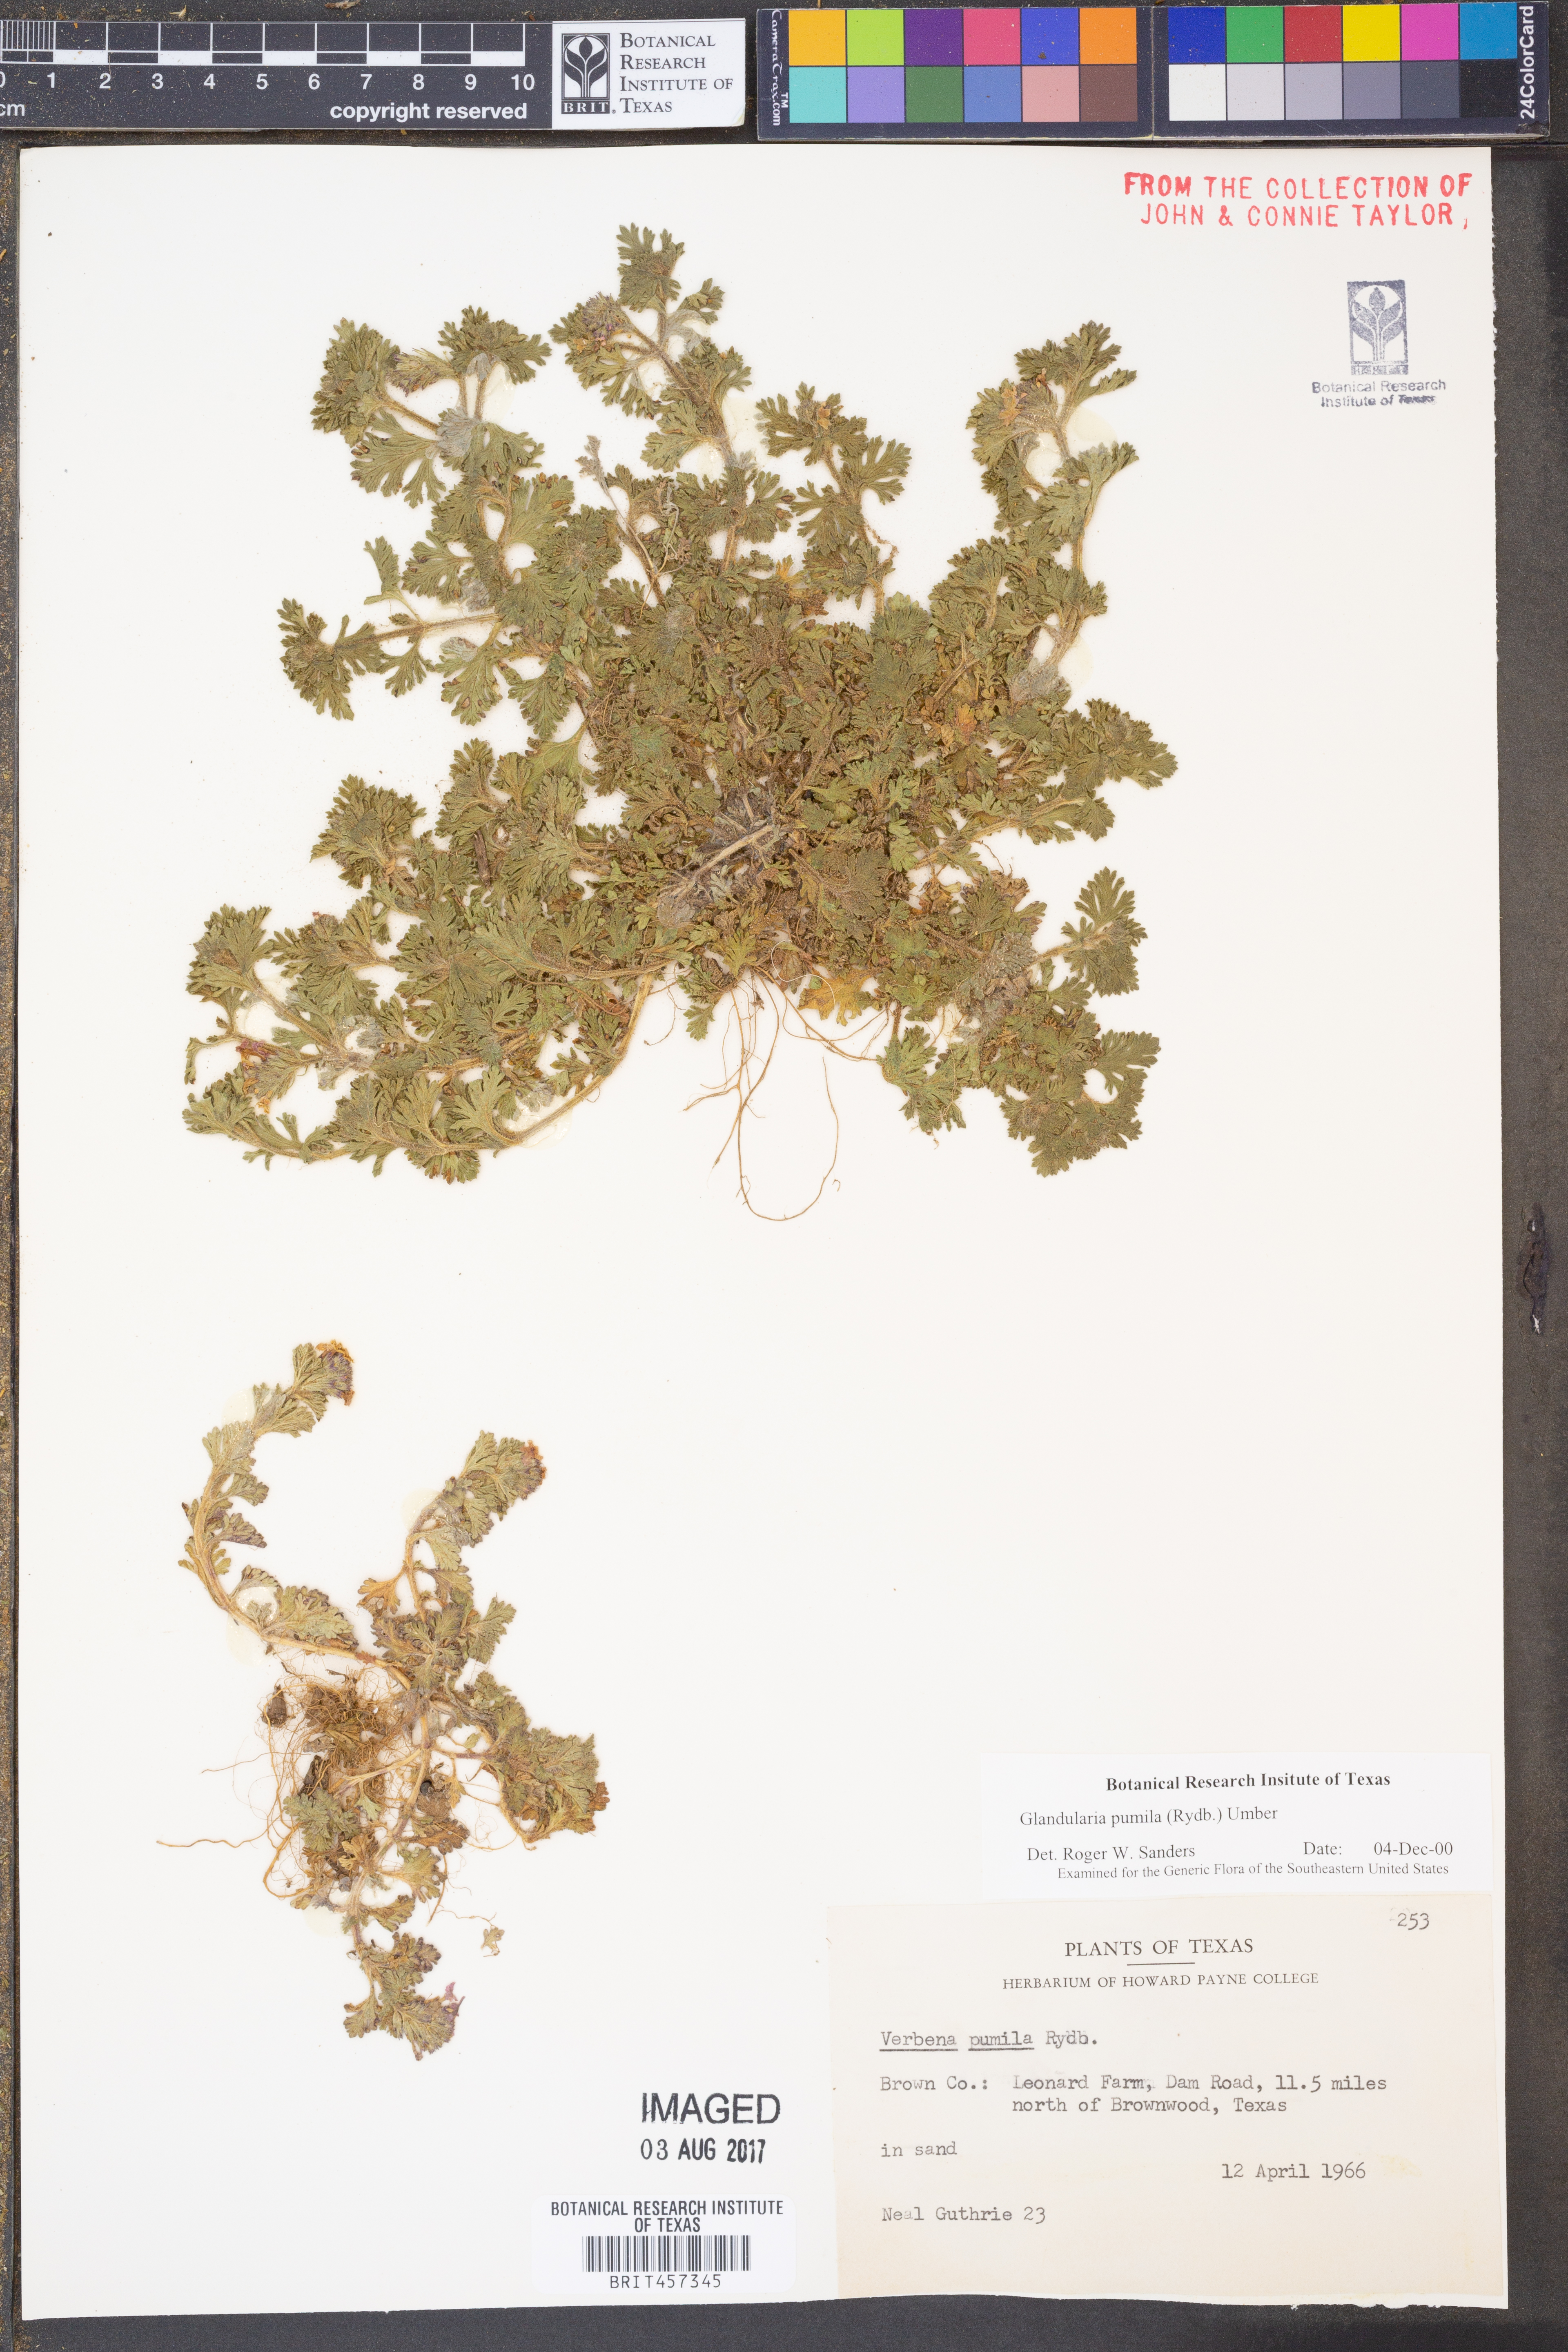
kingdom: Plantae
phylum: Tracheophyta
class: Magnoliopsida
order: Lamiales
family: Verbenaceae
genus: Verbena
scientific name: Verbena pumila
